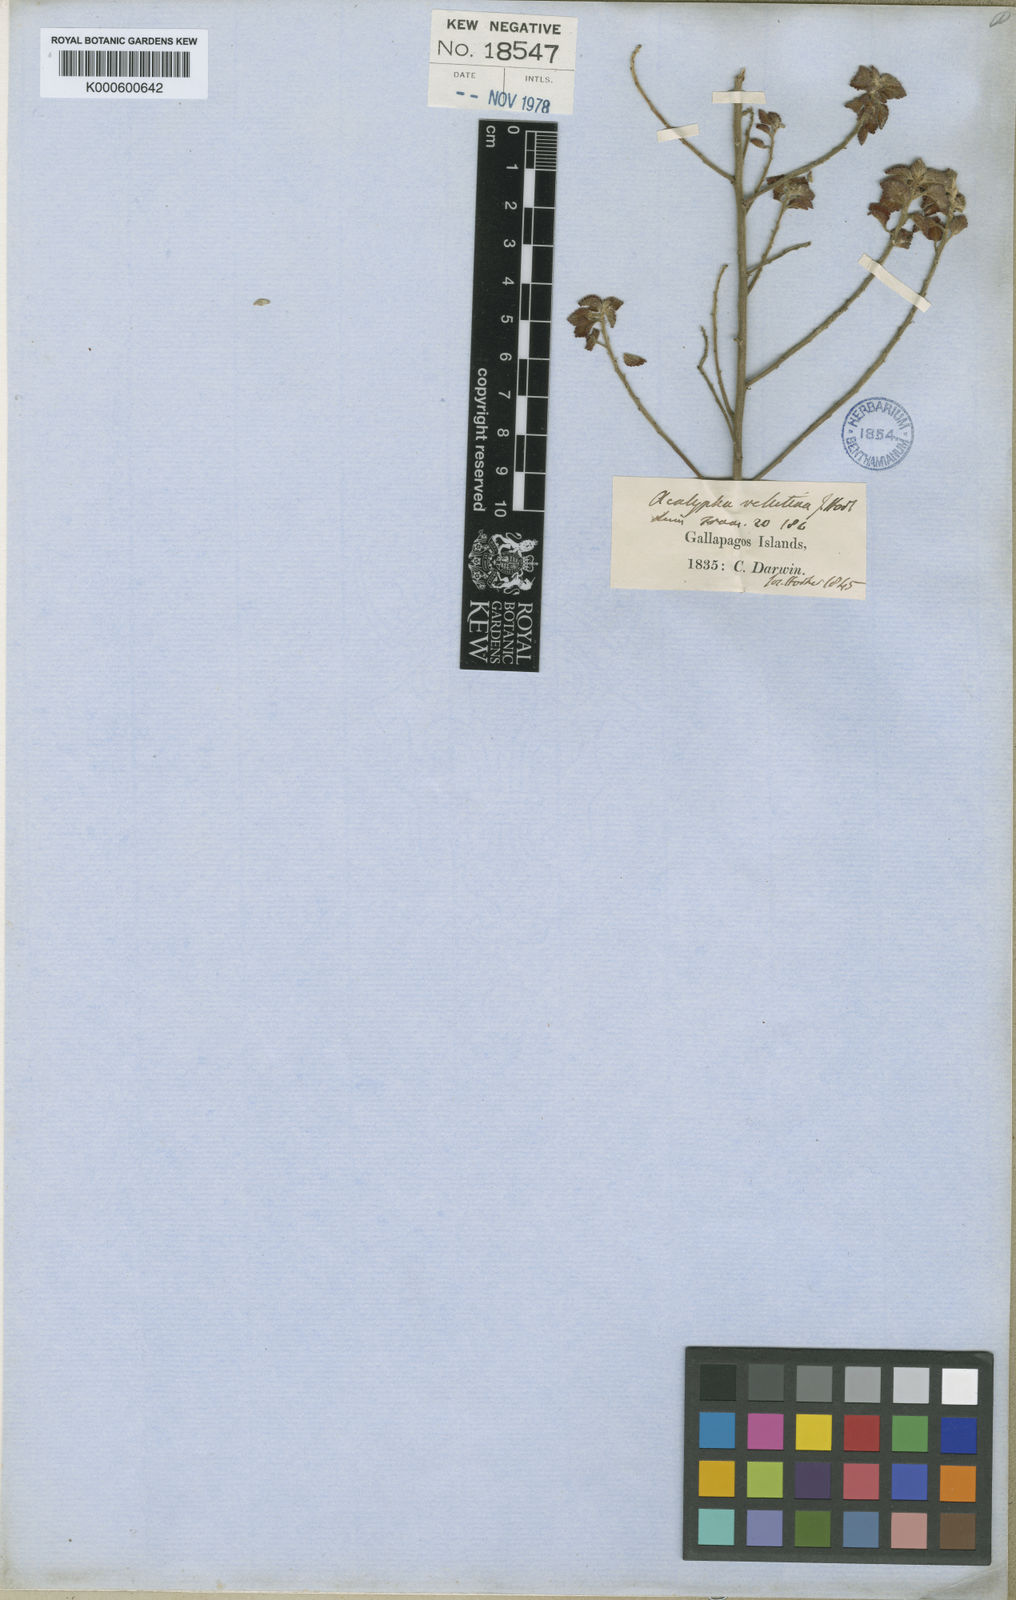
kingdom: Plantae
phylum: Tracheophyta
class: Magnoliopsida
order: Malpighiales
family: Euphorbiaceae
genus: Acalypha
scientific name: Acalypha parvula
